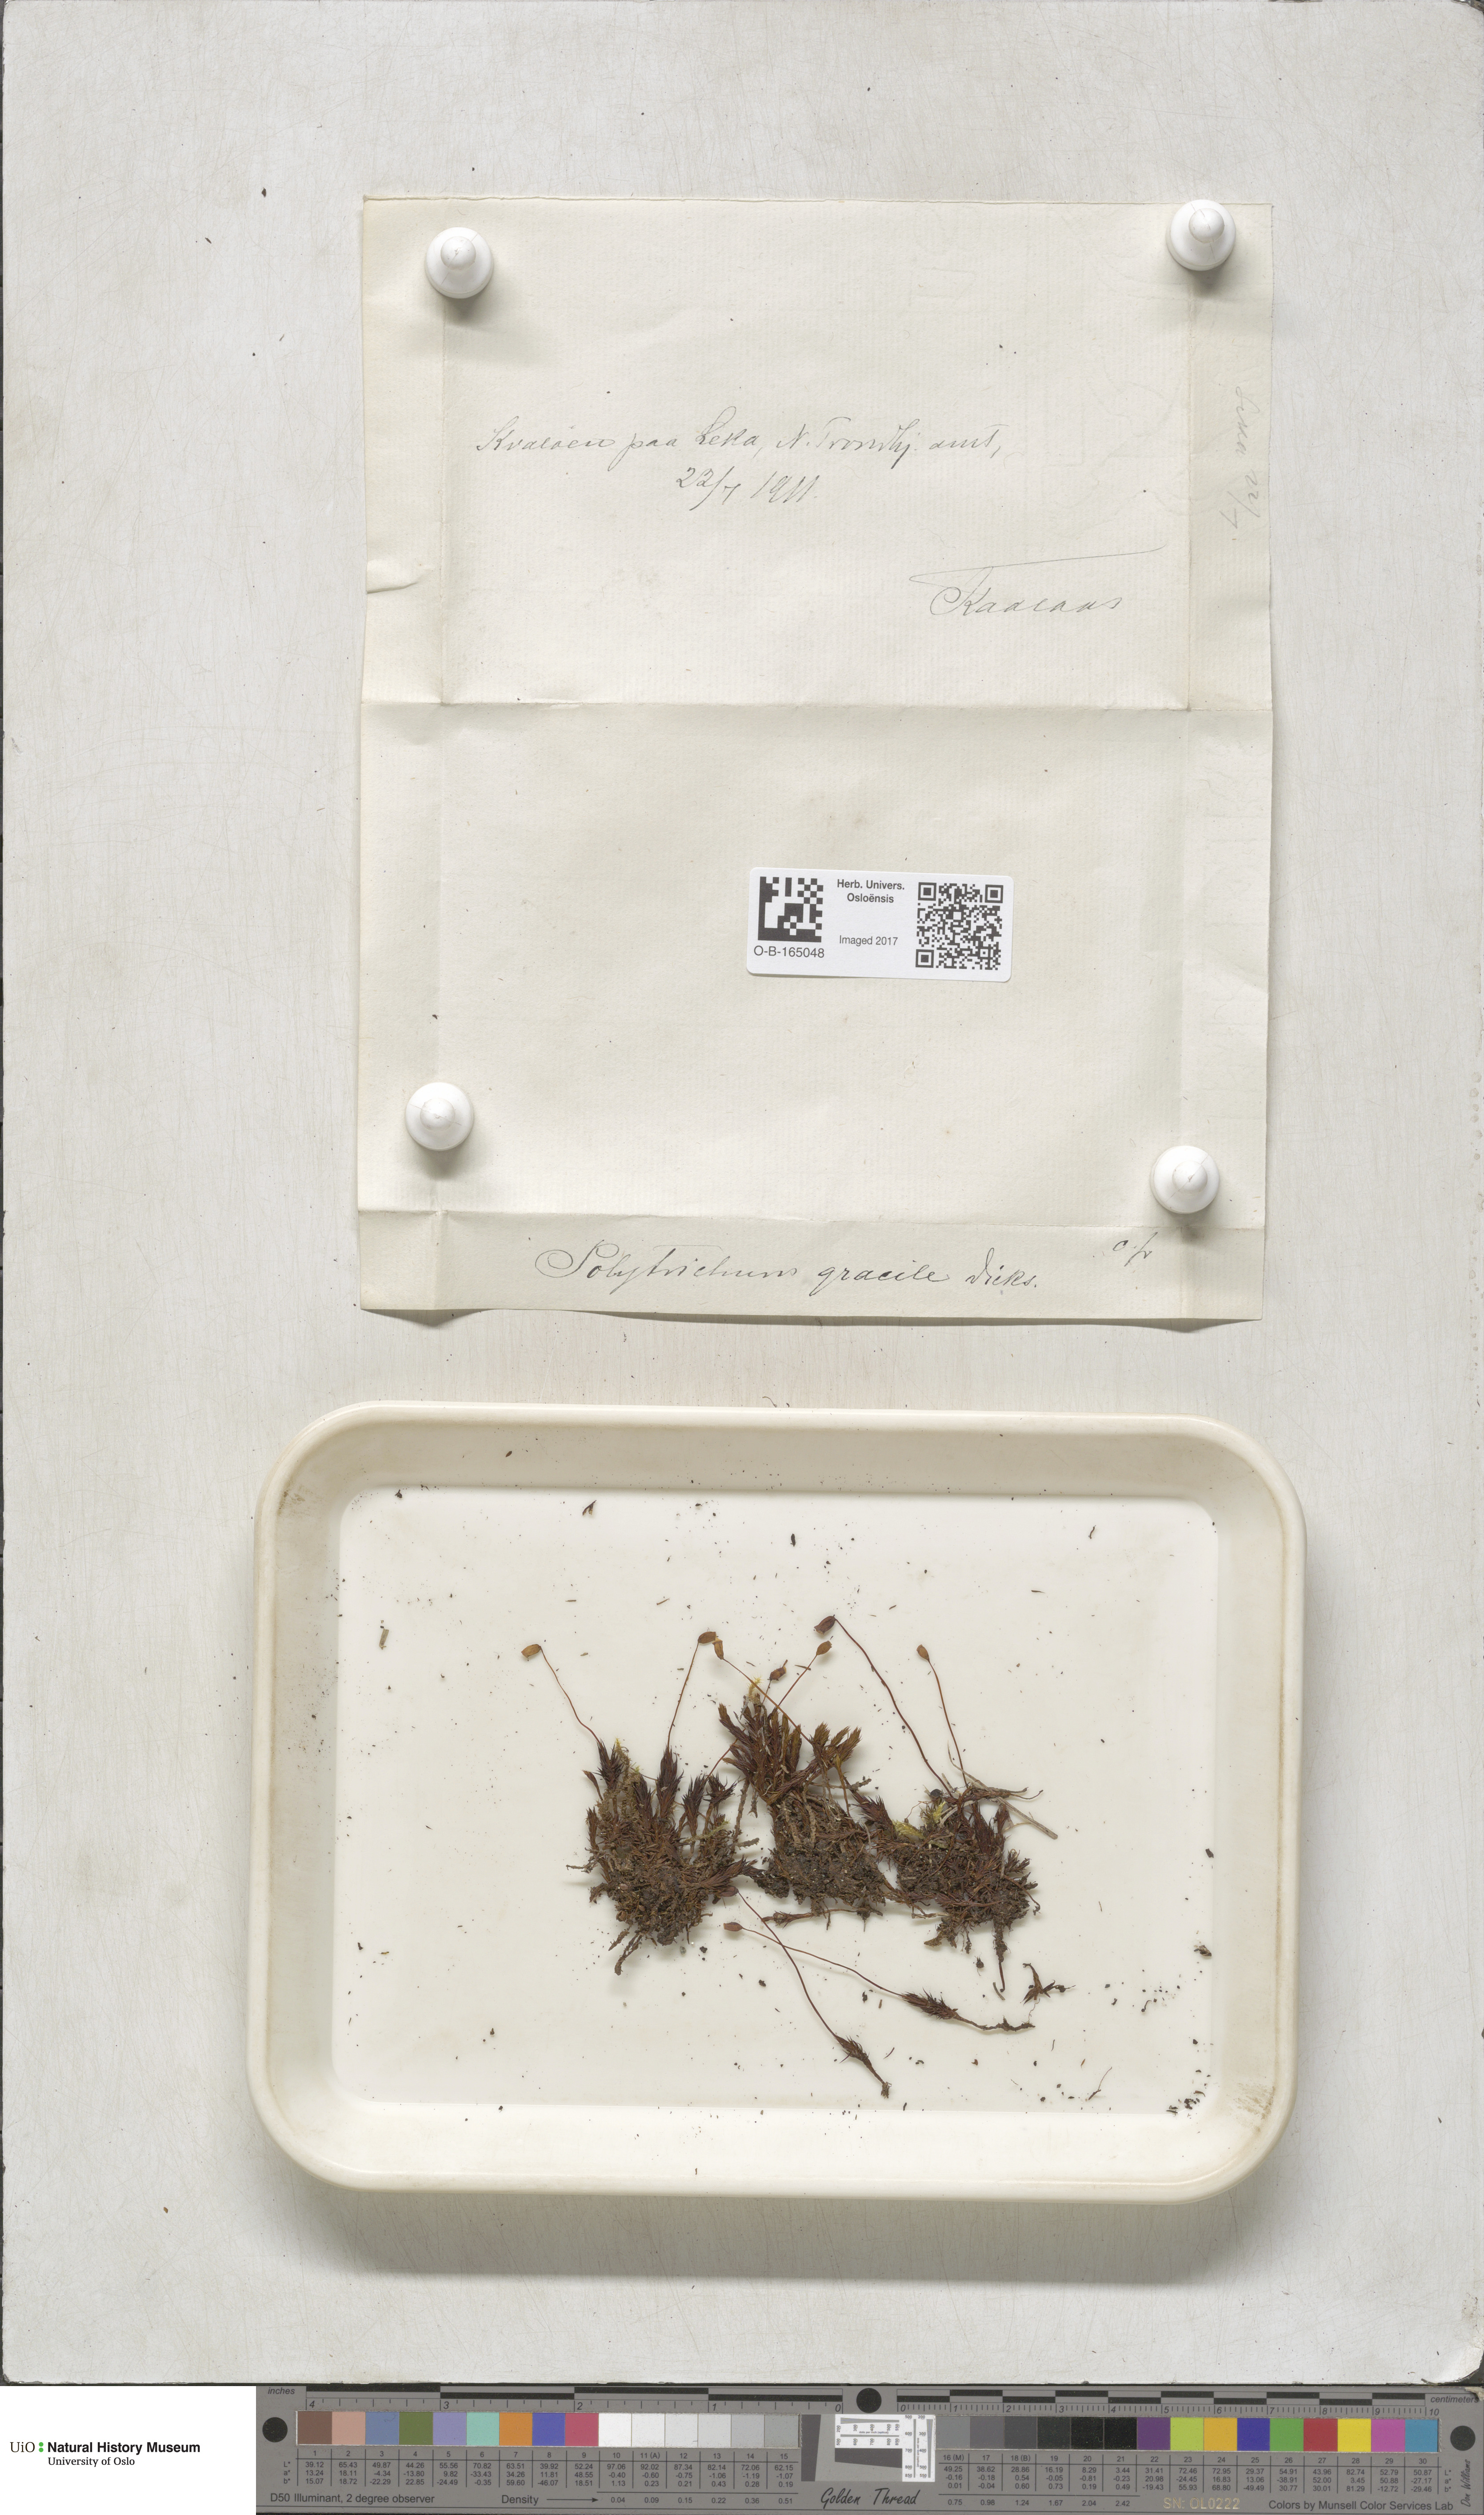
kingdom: Plantae
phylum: Bryophyta
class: Polytrichopsida
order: Polytrichales
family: Polytrichaceae
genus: Polytrichum
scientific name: Polytrichum longisetum
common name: Long-stalked haircap moss
